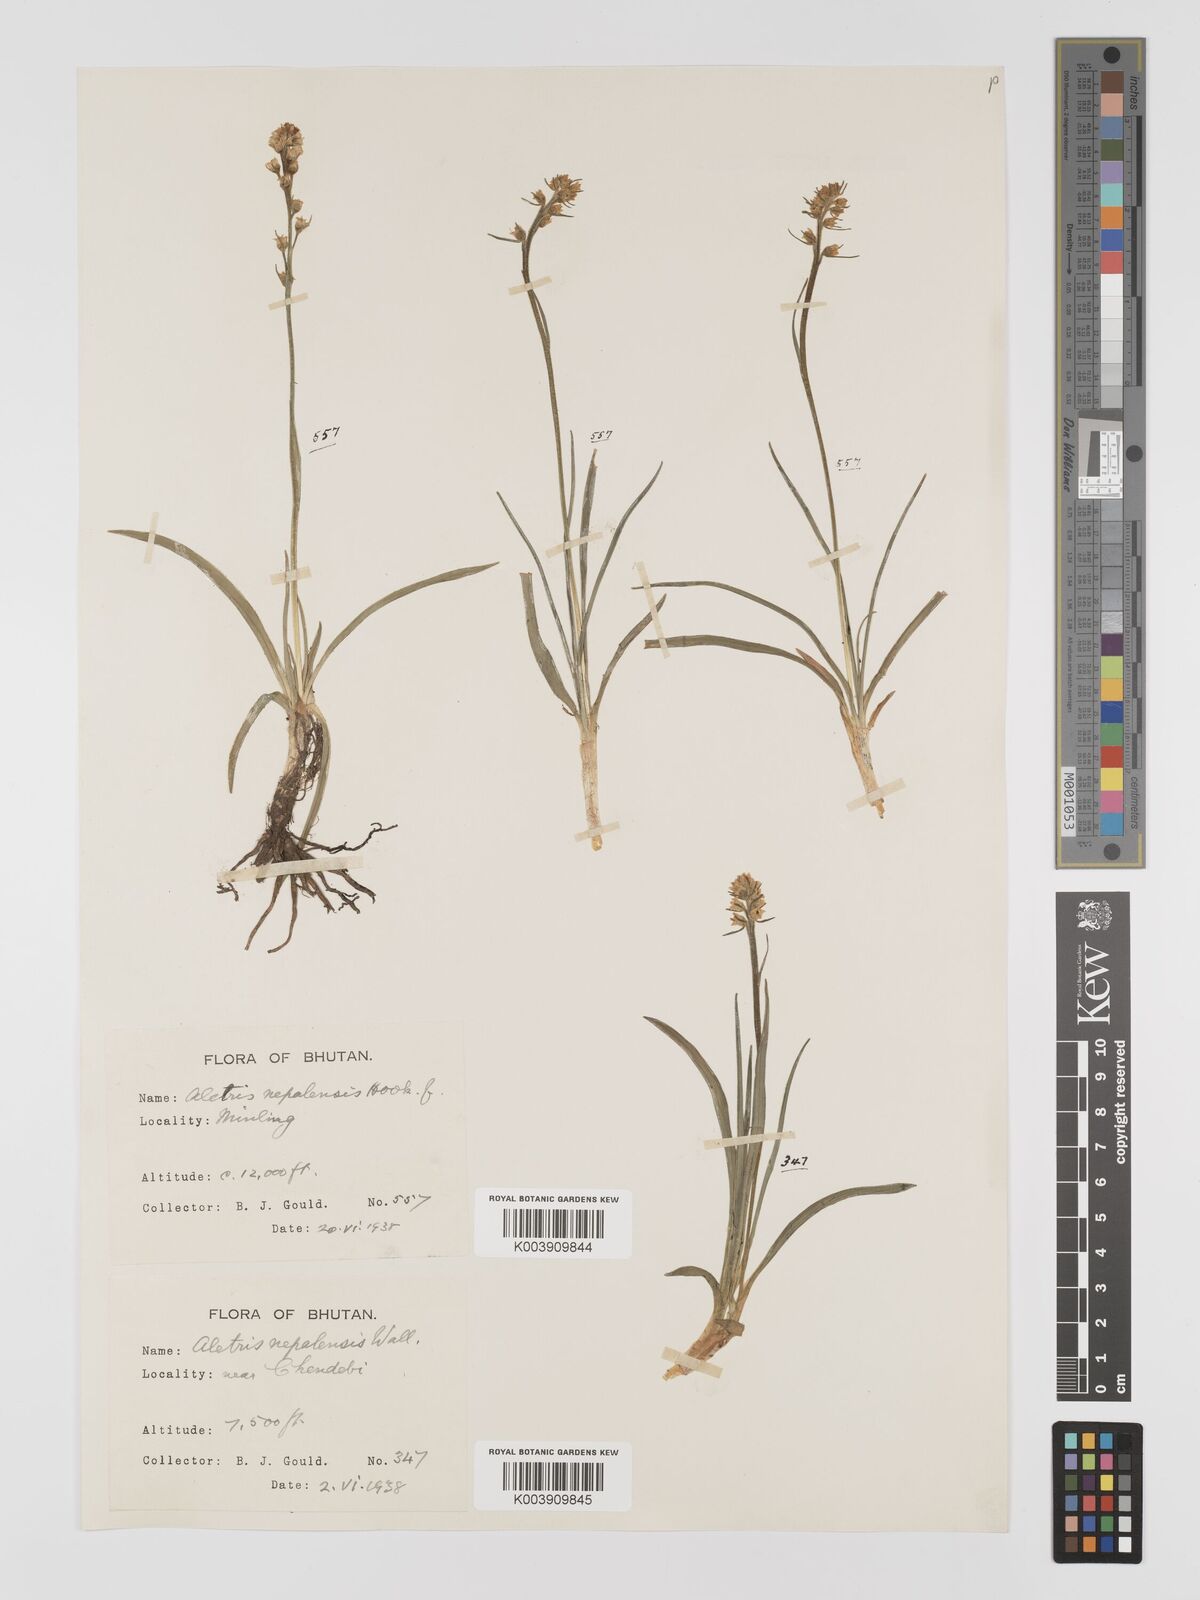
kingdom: Plantae
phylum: Tracheophyta
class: Liliopsida
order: Dioscoreales
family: Nartheciaceae
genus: Aletris
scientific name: Aletris pauciflora
